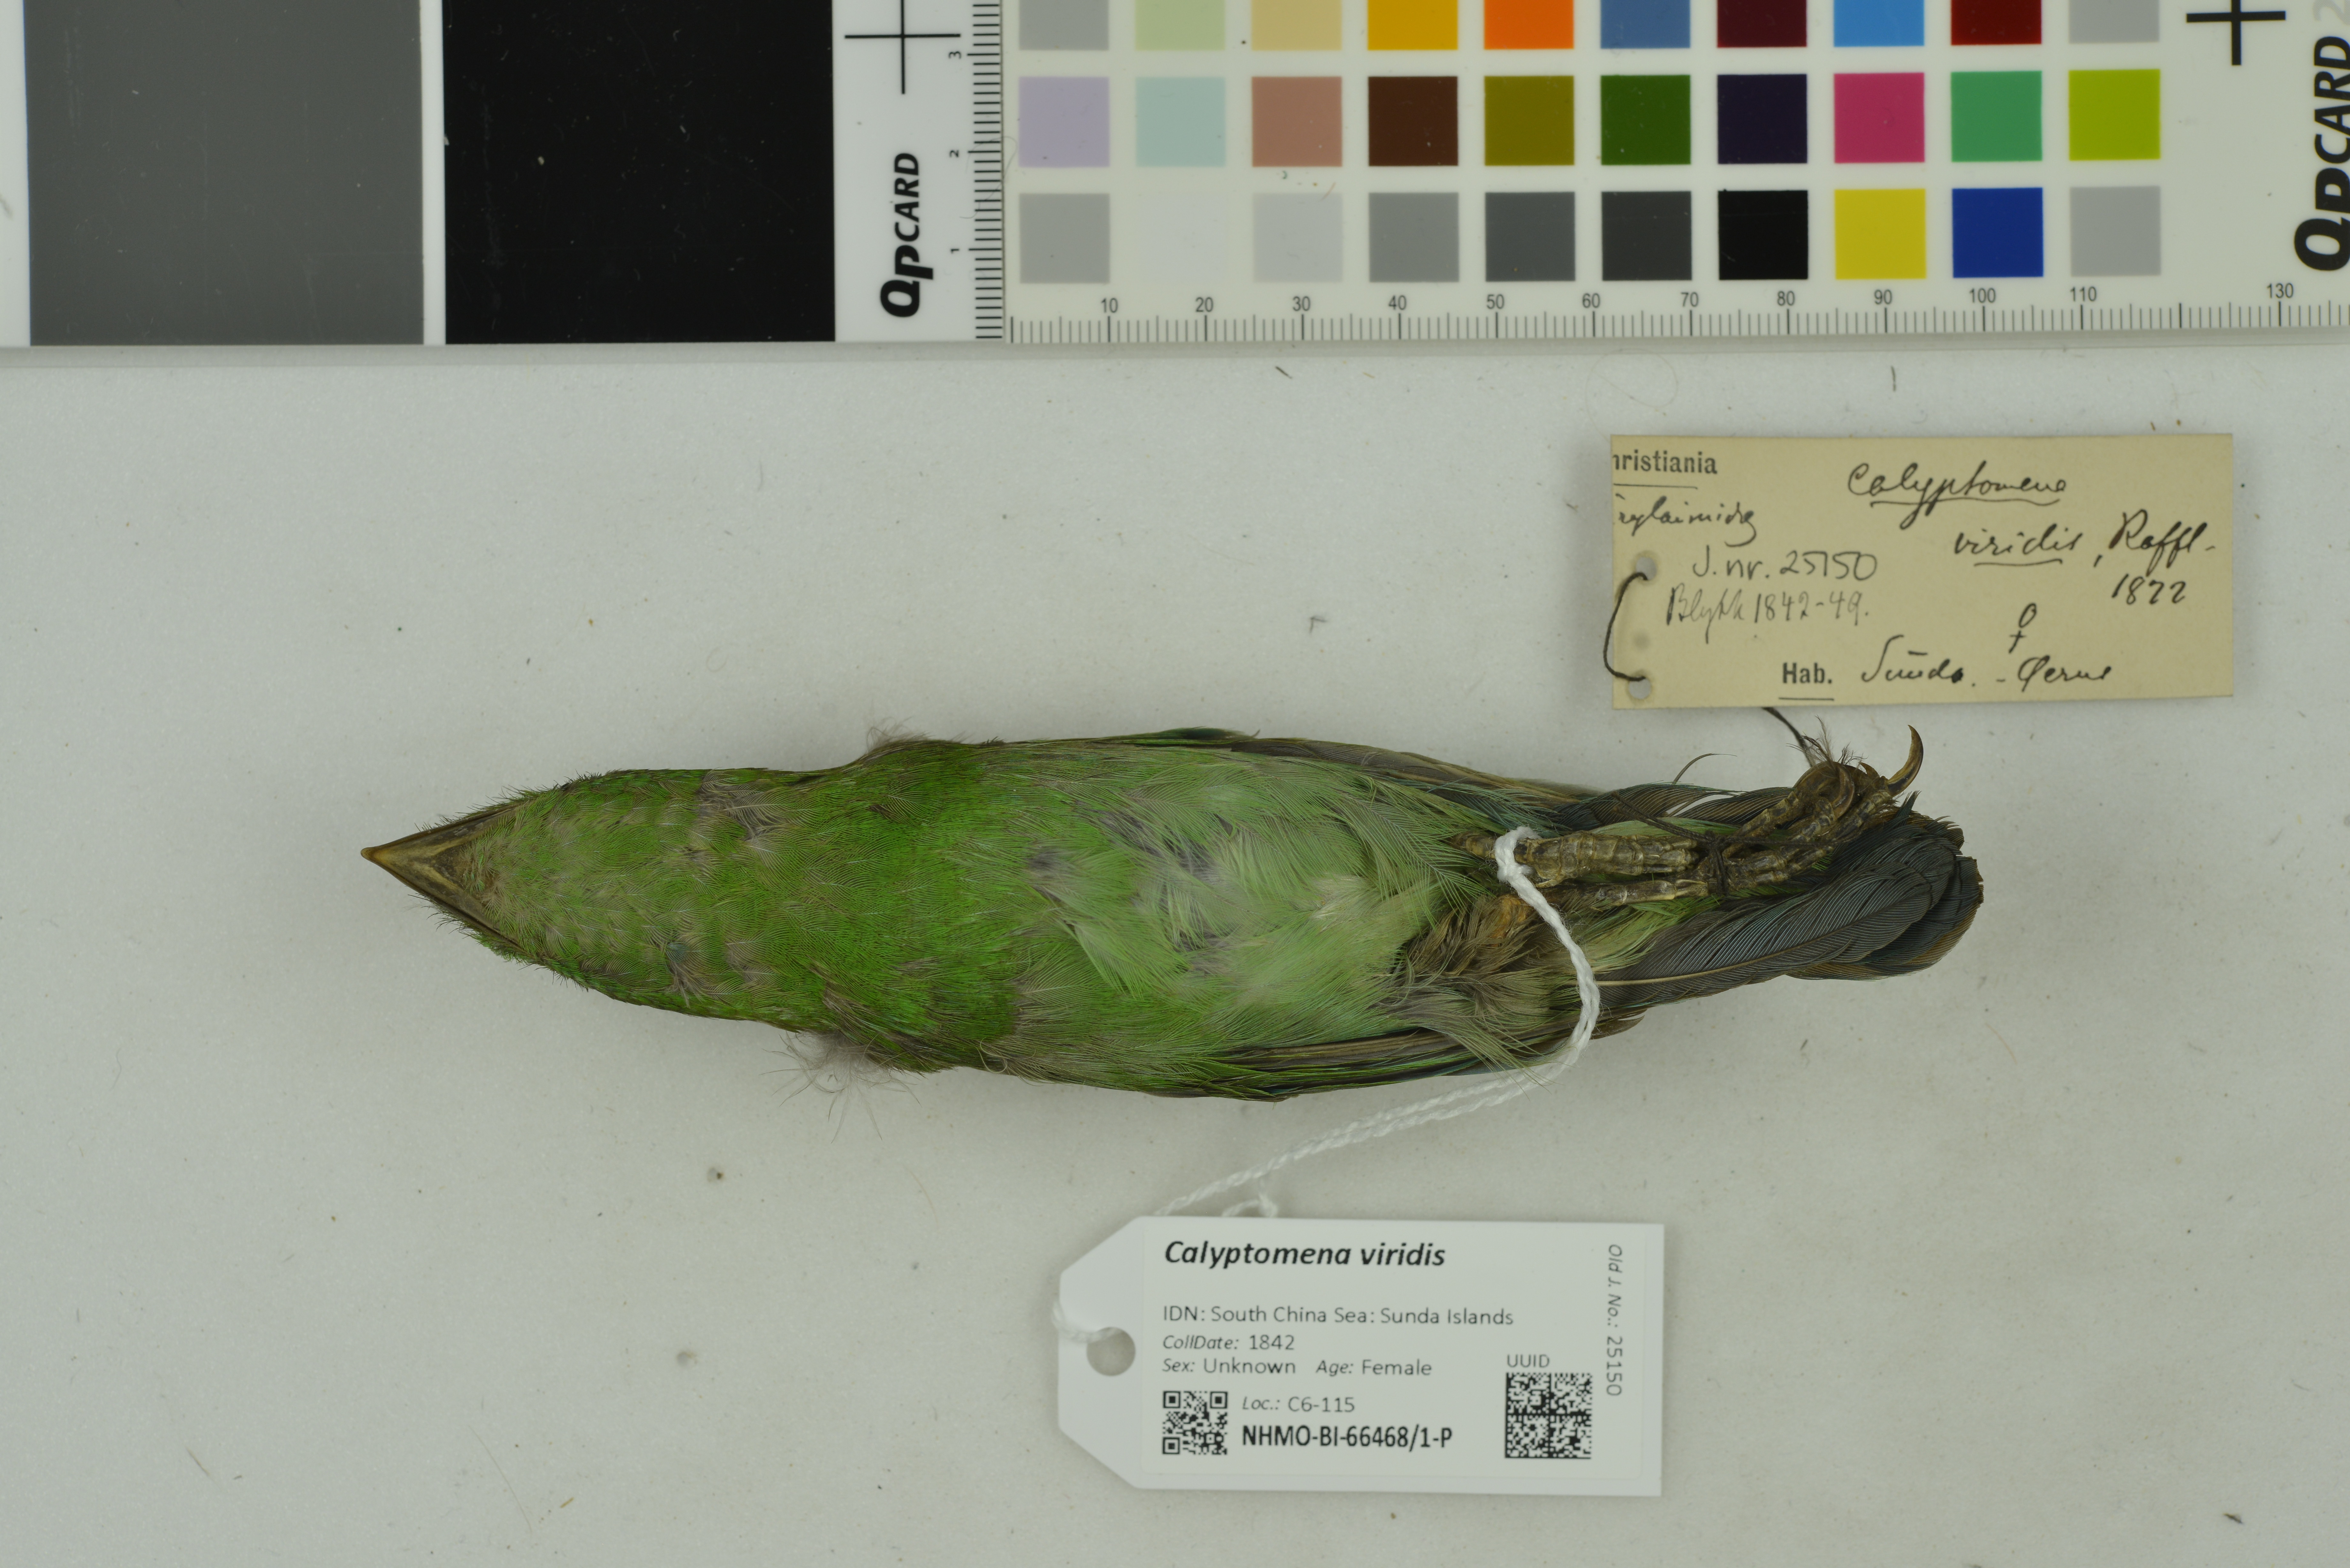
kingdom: Animalia
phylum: Chordata
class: Aves
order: Passeriformes
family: Eurylaimidae
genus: Calyptomena
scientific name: Calyptomena viridis
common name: Green broadbill
